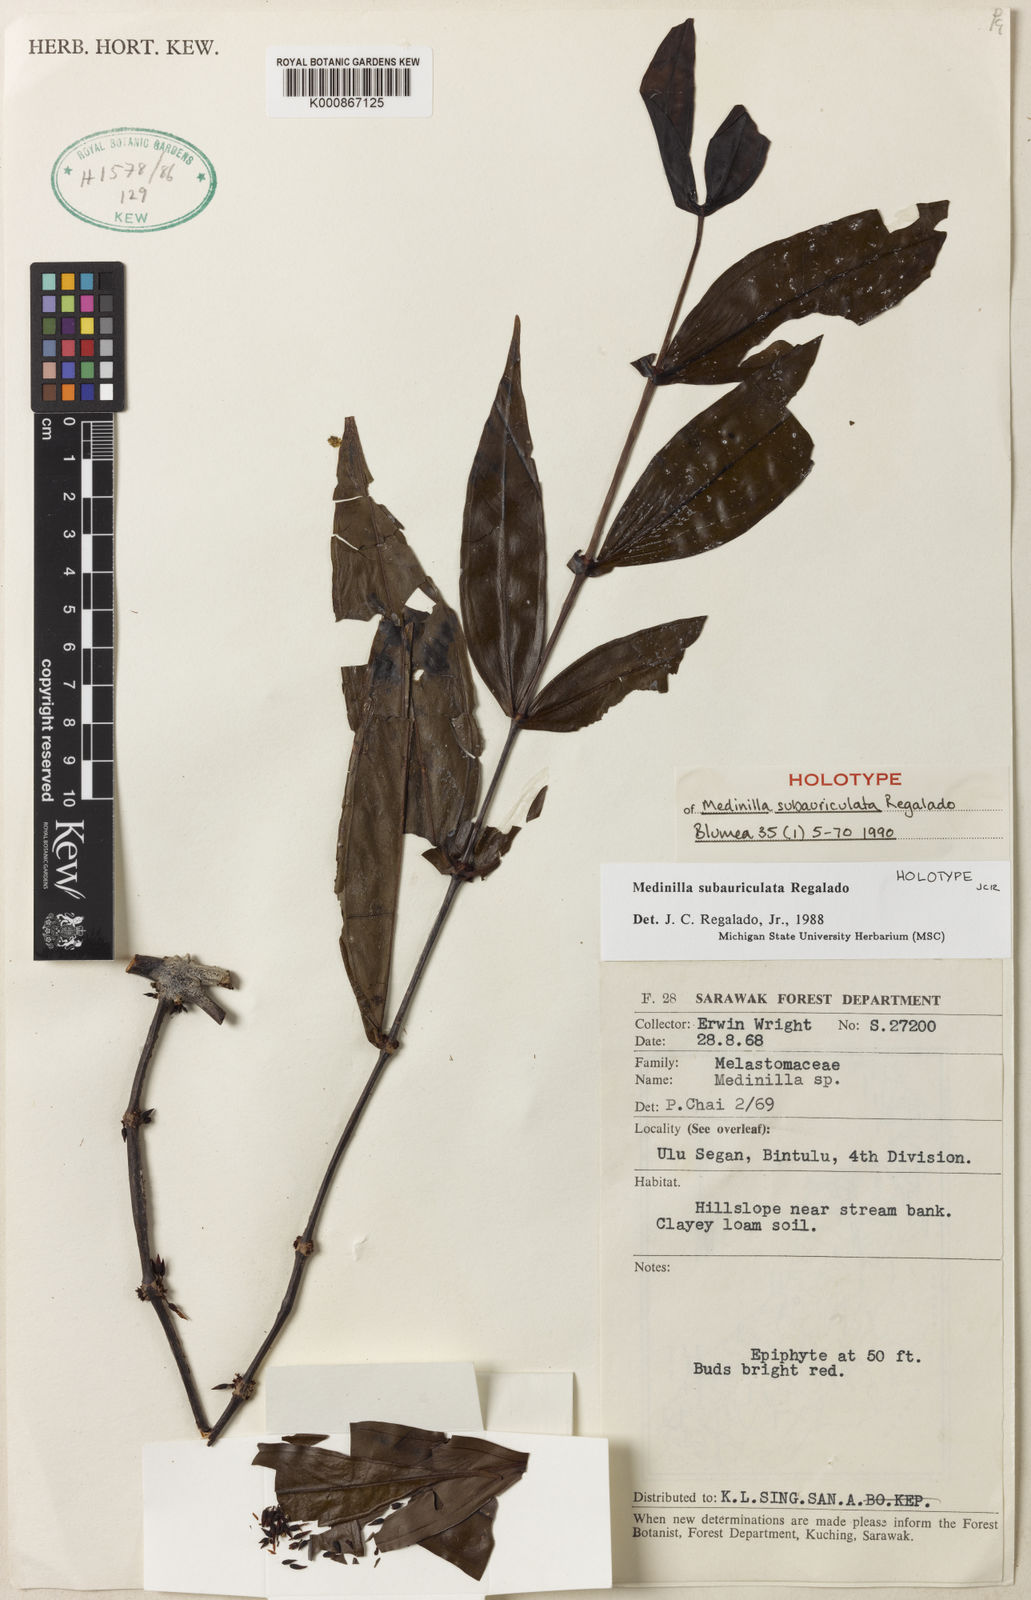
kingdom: Plantae
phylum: Tracheophyta
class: Magnoliopsida
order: Myrtales
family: Melastomataceae
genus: Medinilla
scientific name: Medinilla subauriculata
